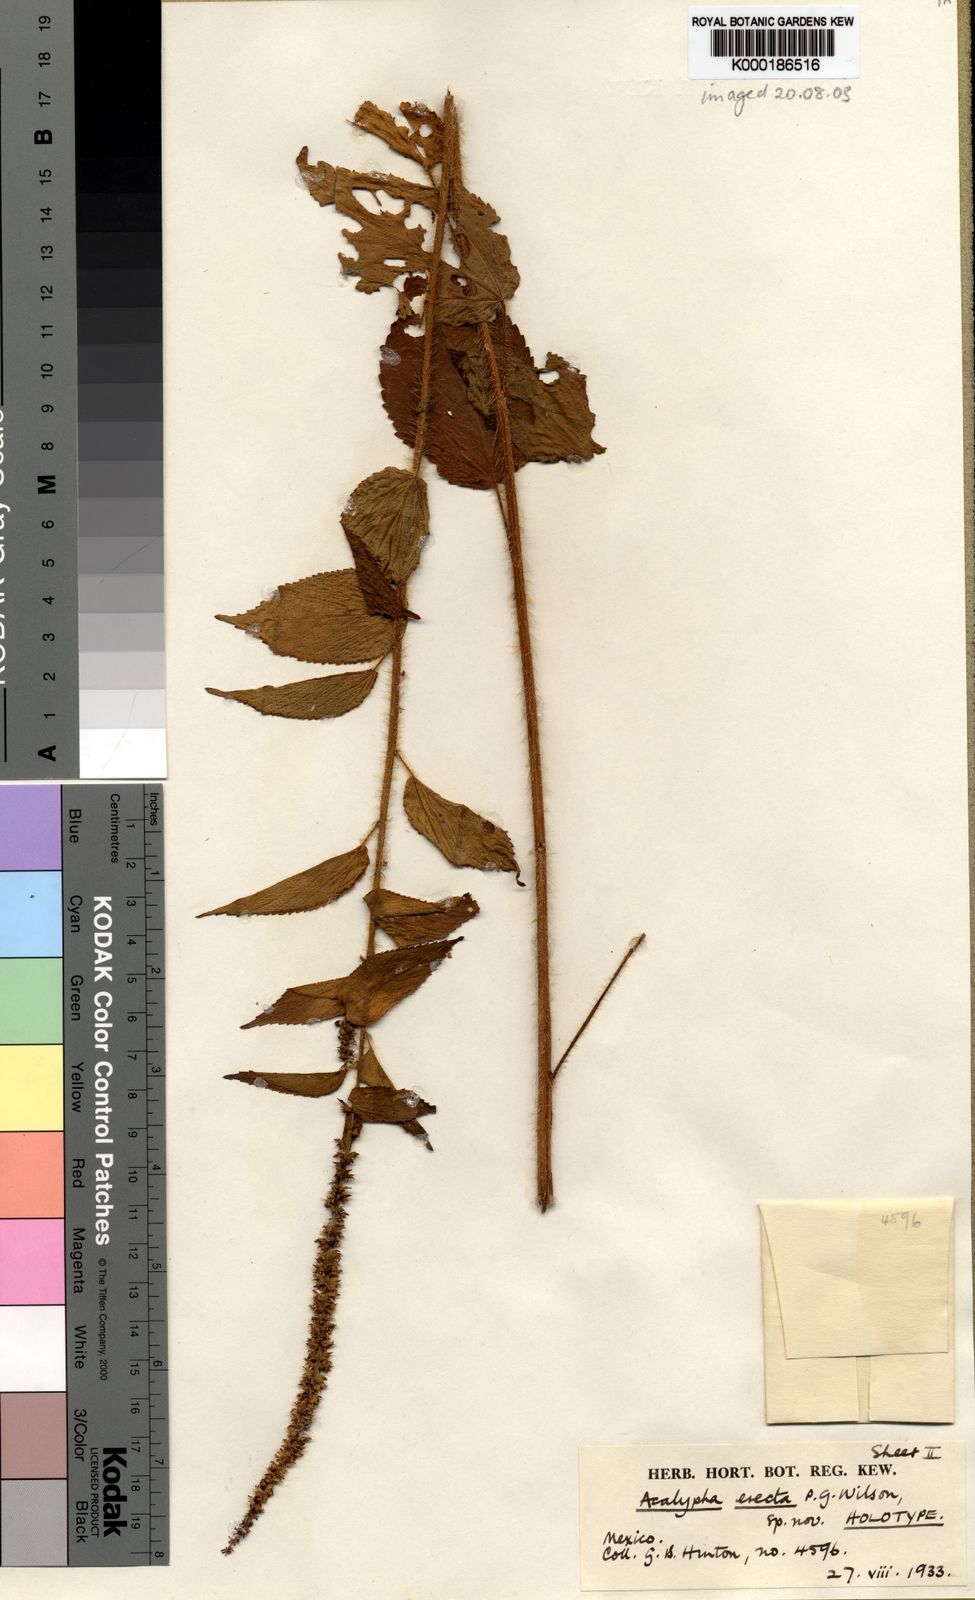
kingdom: Plantae
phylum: Tracheophyta
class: Magnoliopsida
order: Malpighiales
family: Euphorbiaceae
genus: Acalypha
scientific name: Acalypha erecta
